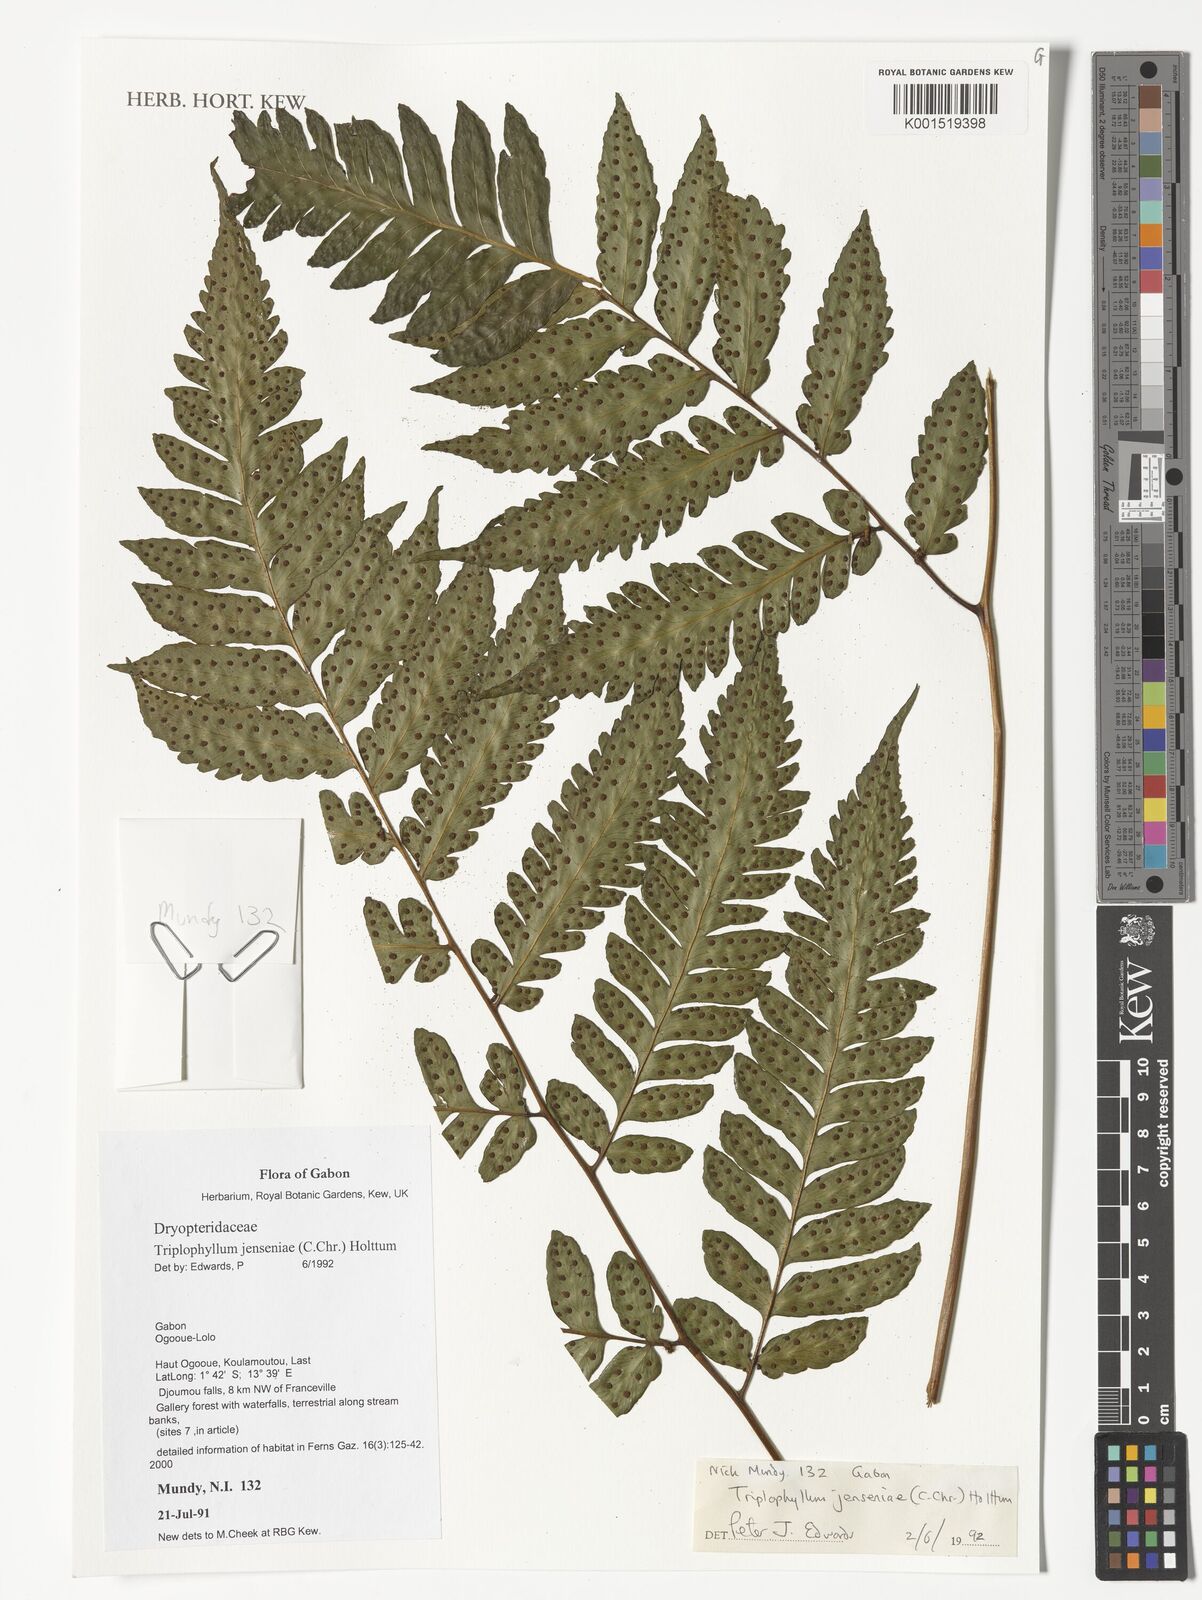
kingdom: Plantae
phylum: Tracheophyta
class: Polypodiopsida
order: Polypodiales
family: Tectariaceae
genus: Triplophyllum
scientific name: Triplophyllum jenseniae
